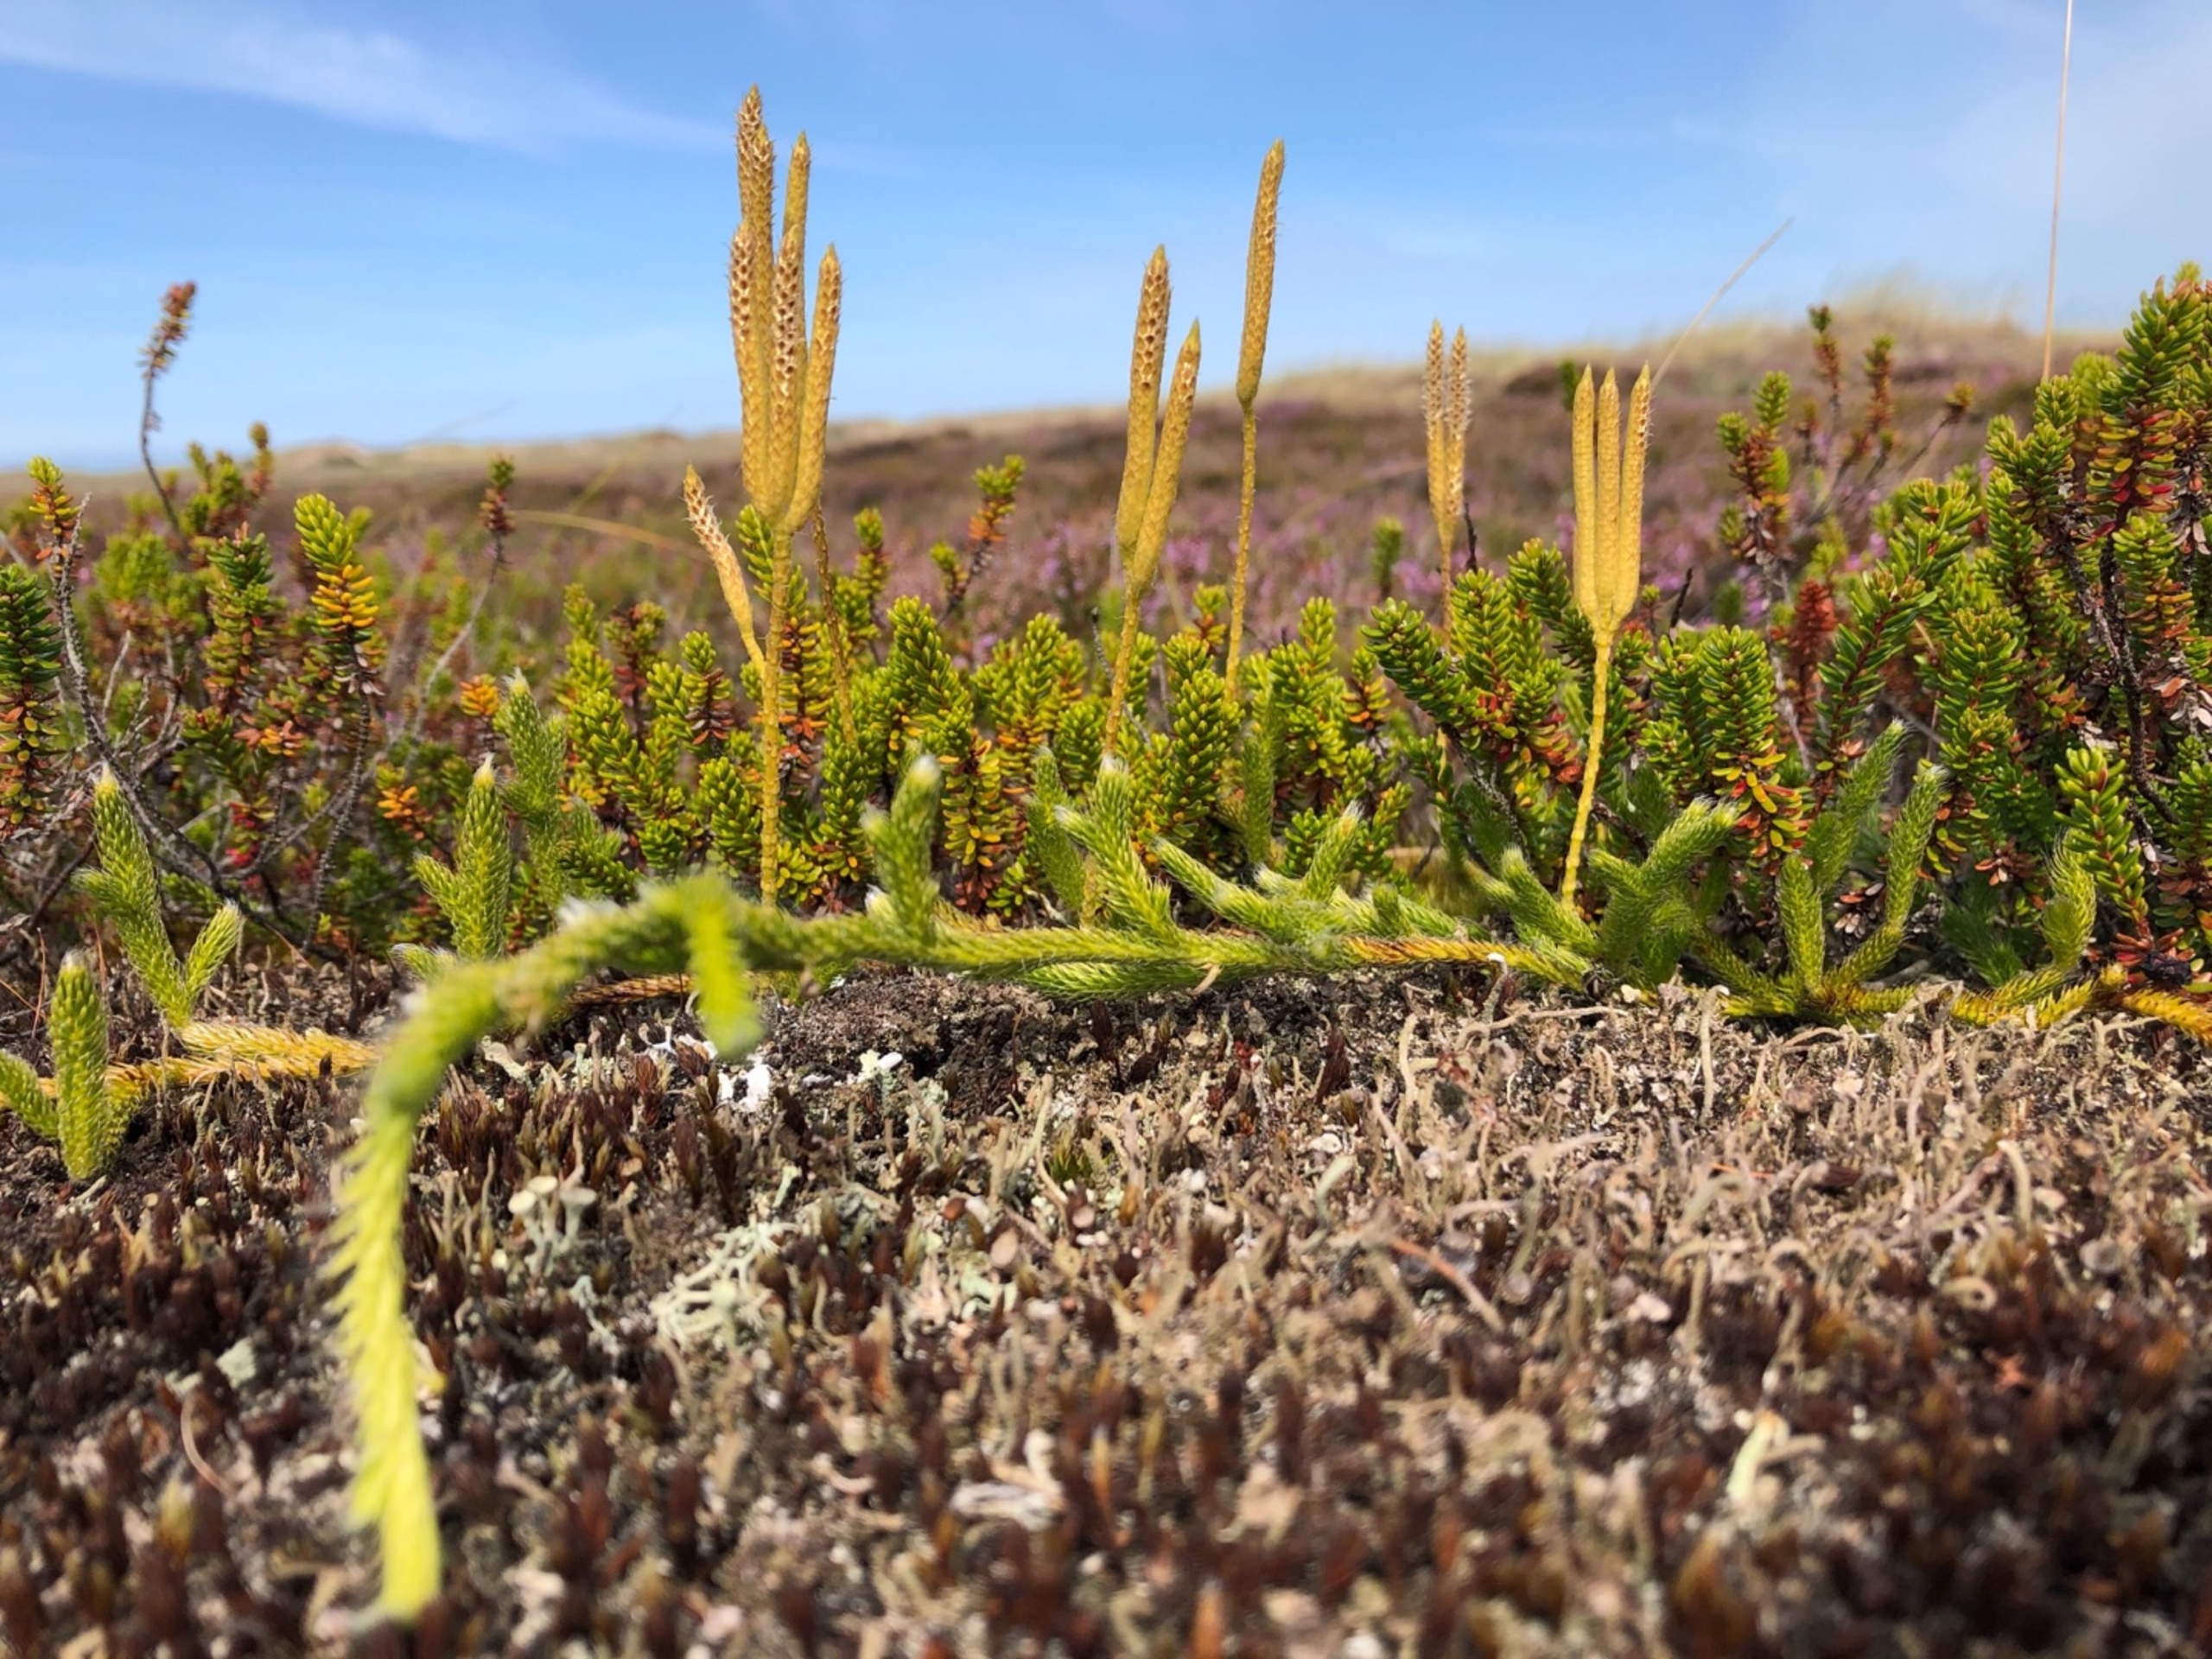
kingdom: Plantae
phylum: Tracheophyta
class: Lycopodiopsida
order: Lycopodiales
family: Lycopodiaceae
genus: Lycopodium
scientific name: Lycopodium clavatum
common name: Almindelig ulvefod
